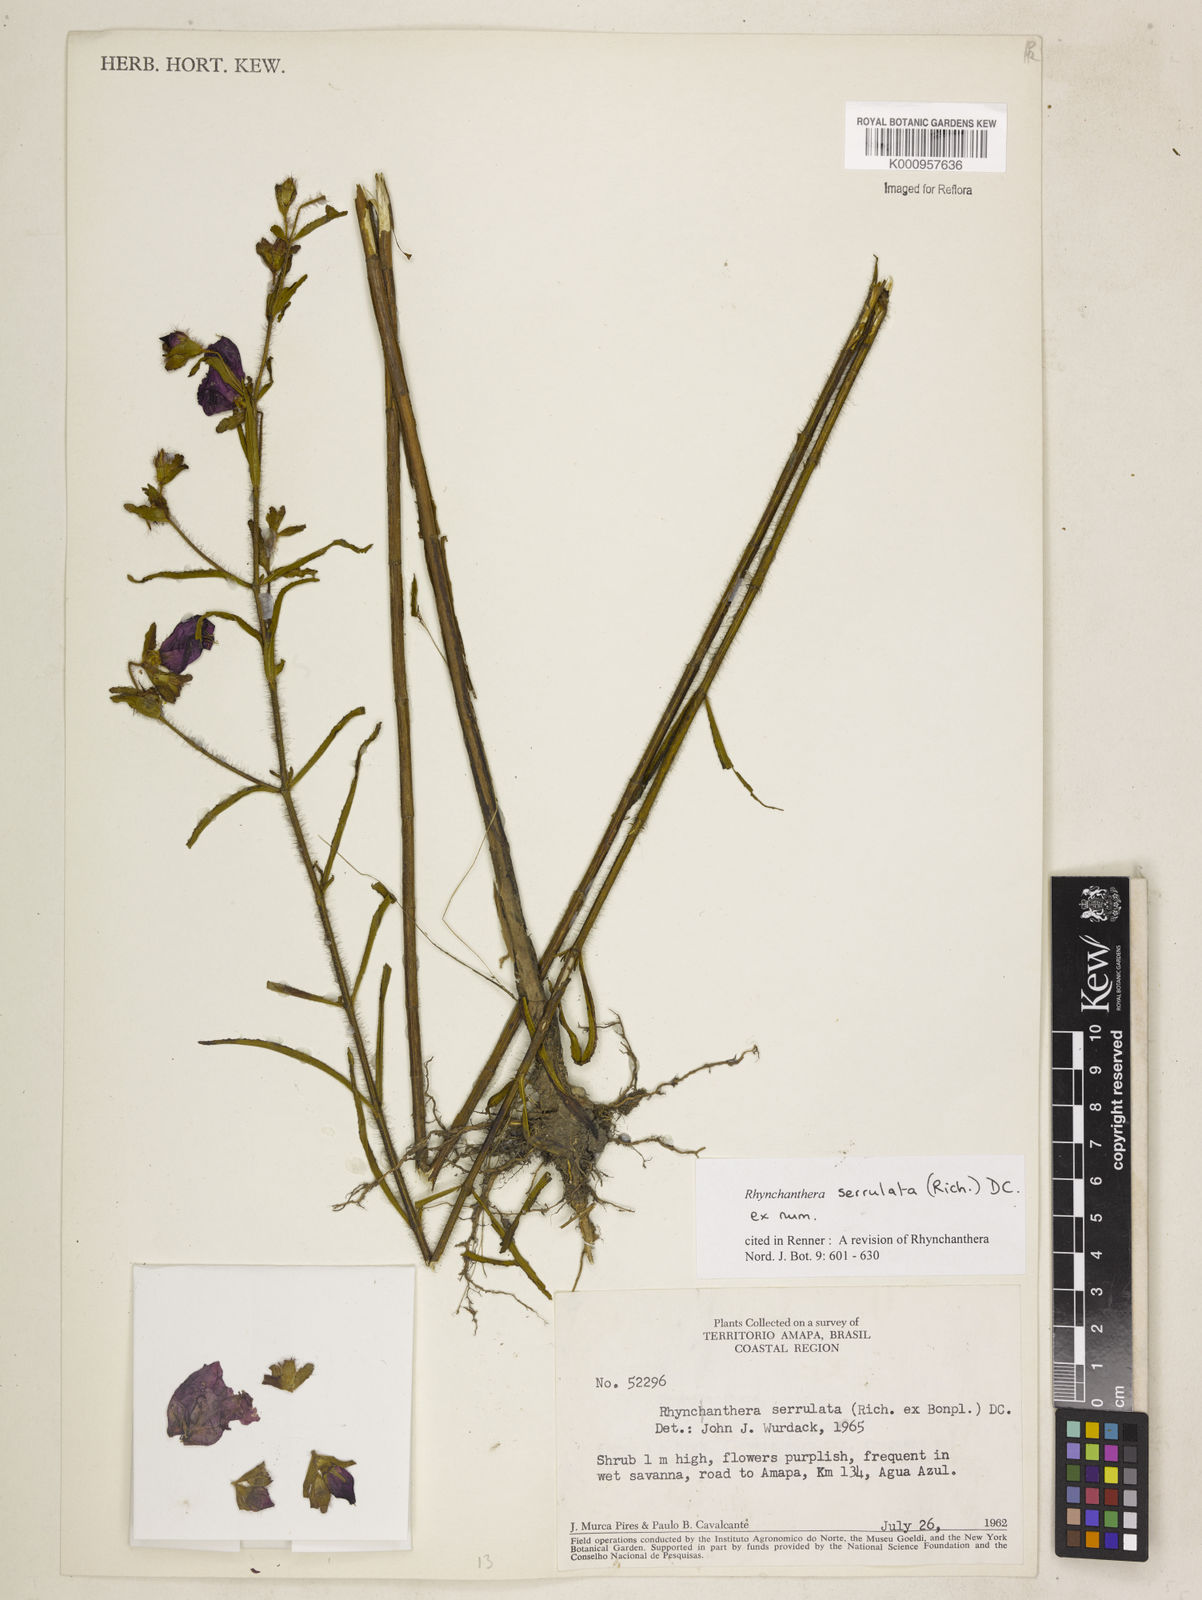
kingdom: Plantae
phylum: Tracheophyta
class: Magnoliopsida
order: Myrtales
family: Melastomataceae
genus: Rhynchanthera
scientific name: Rhynchanthera serrulata
